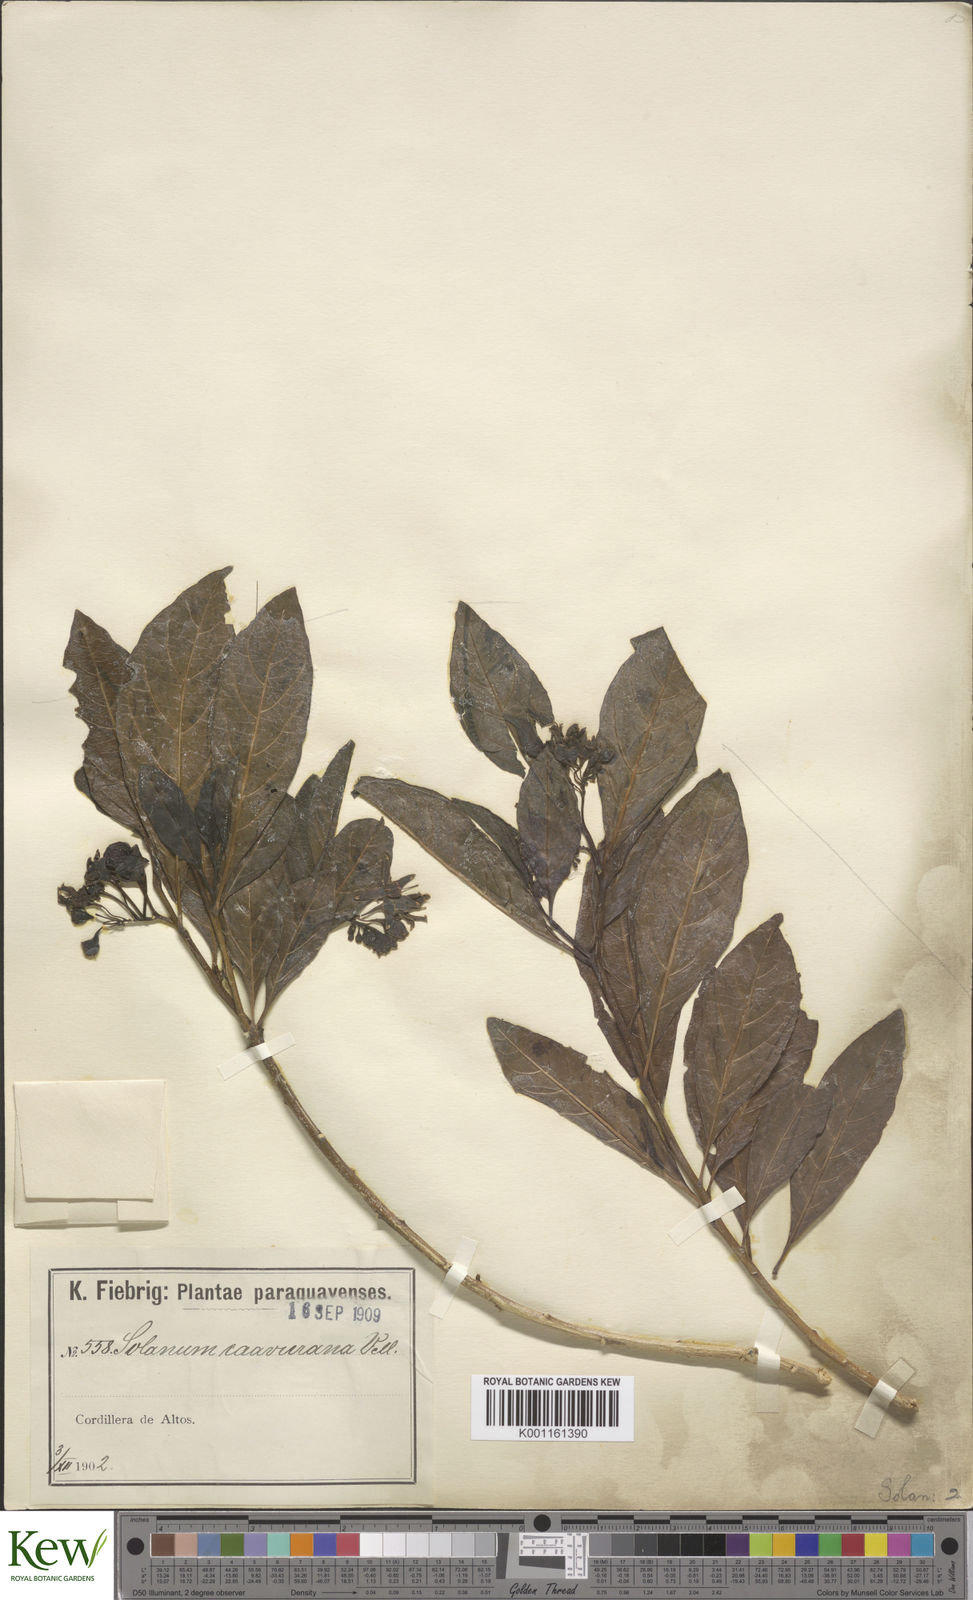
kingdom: Plantae
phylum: Tracheophyta
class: Magnoliopsida
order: Solanales
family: Solanaceae
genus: Solanum
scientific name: Solanum caavurana
